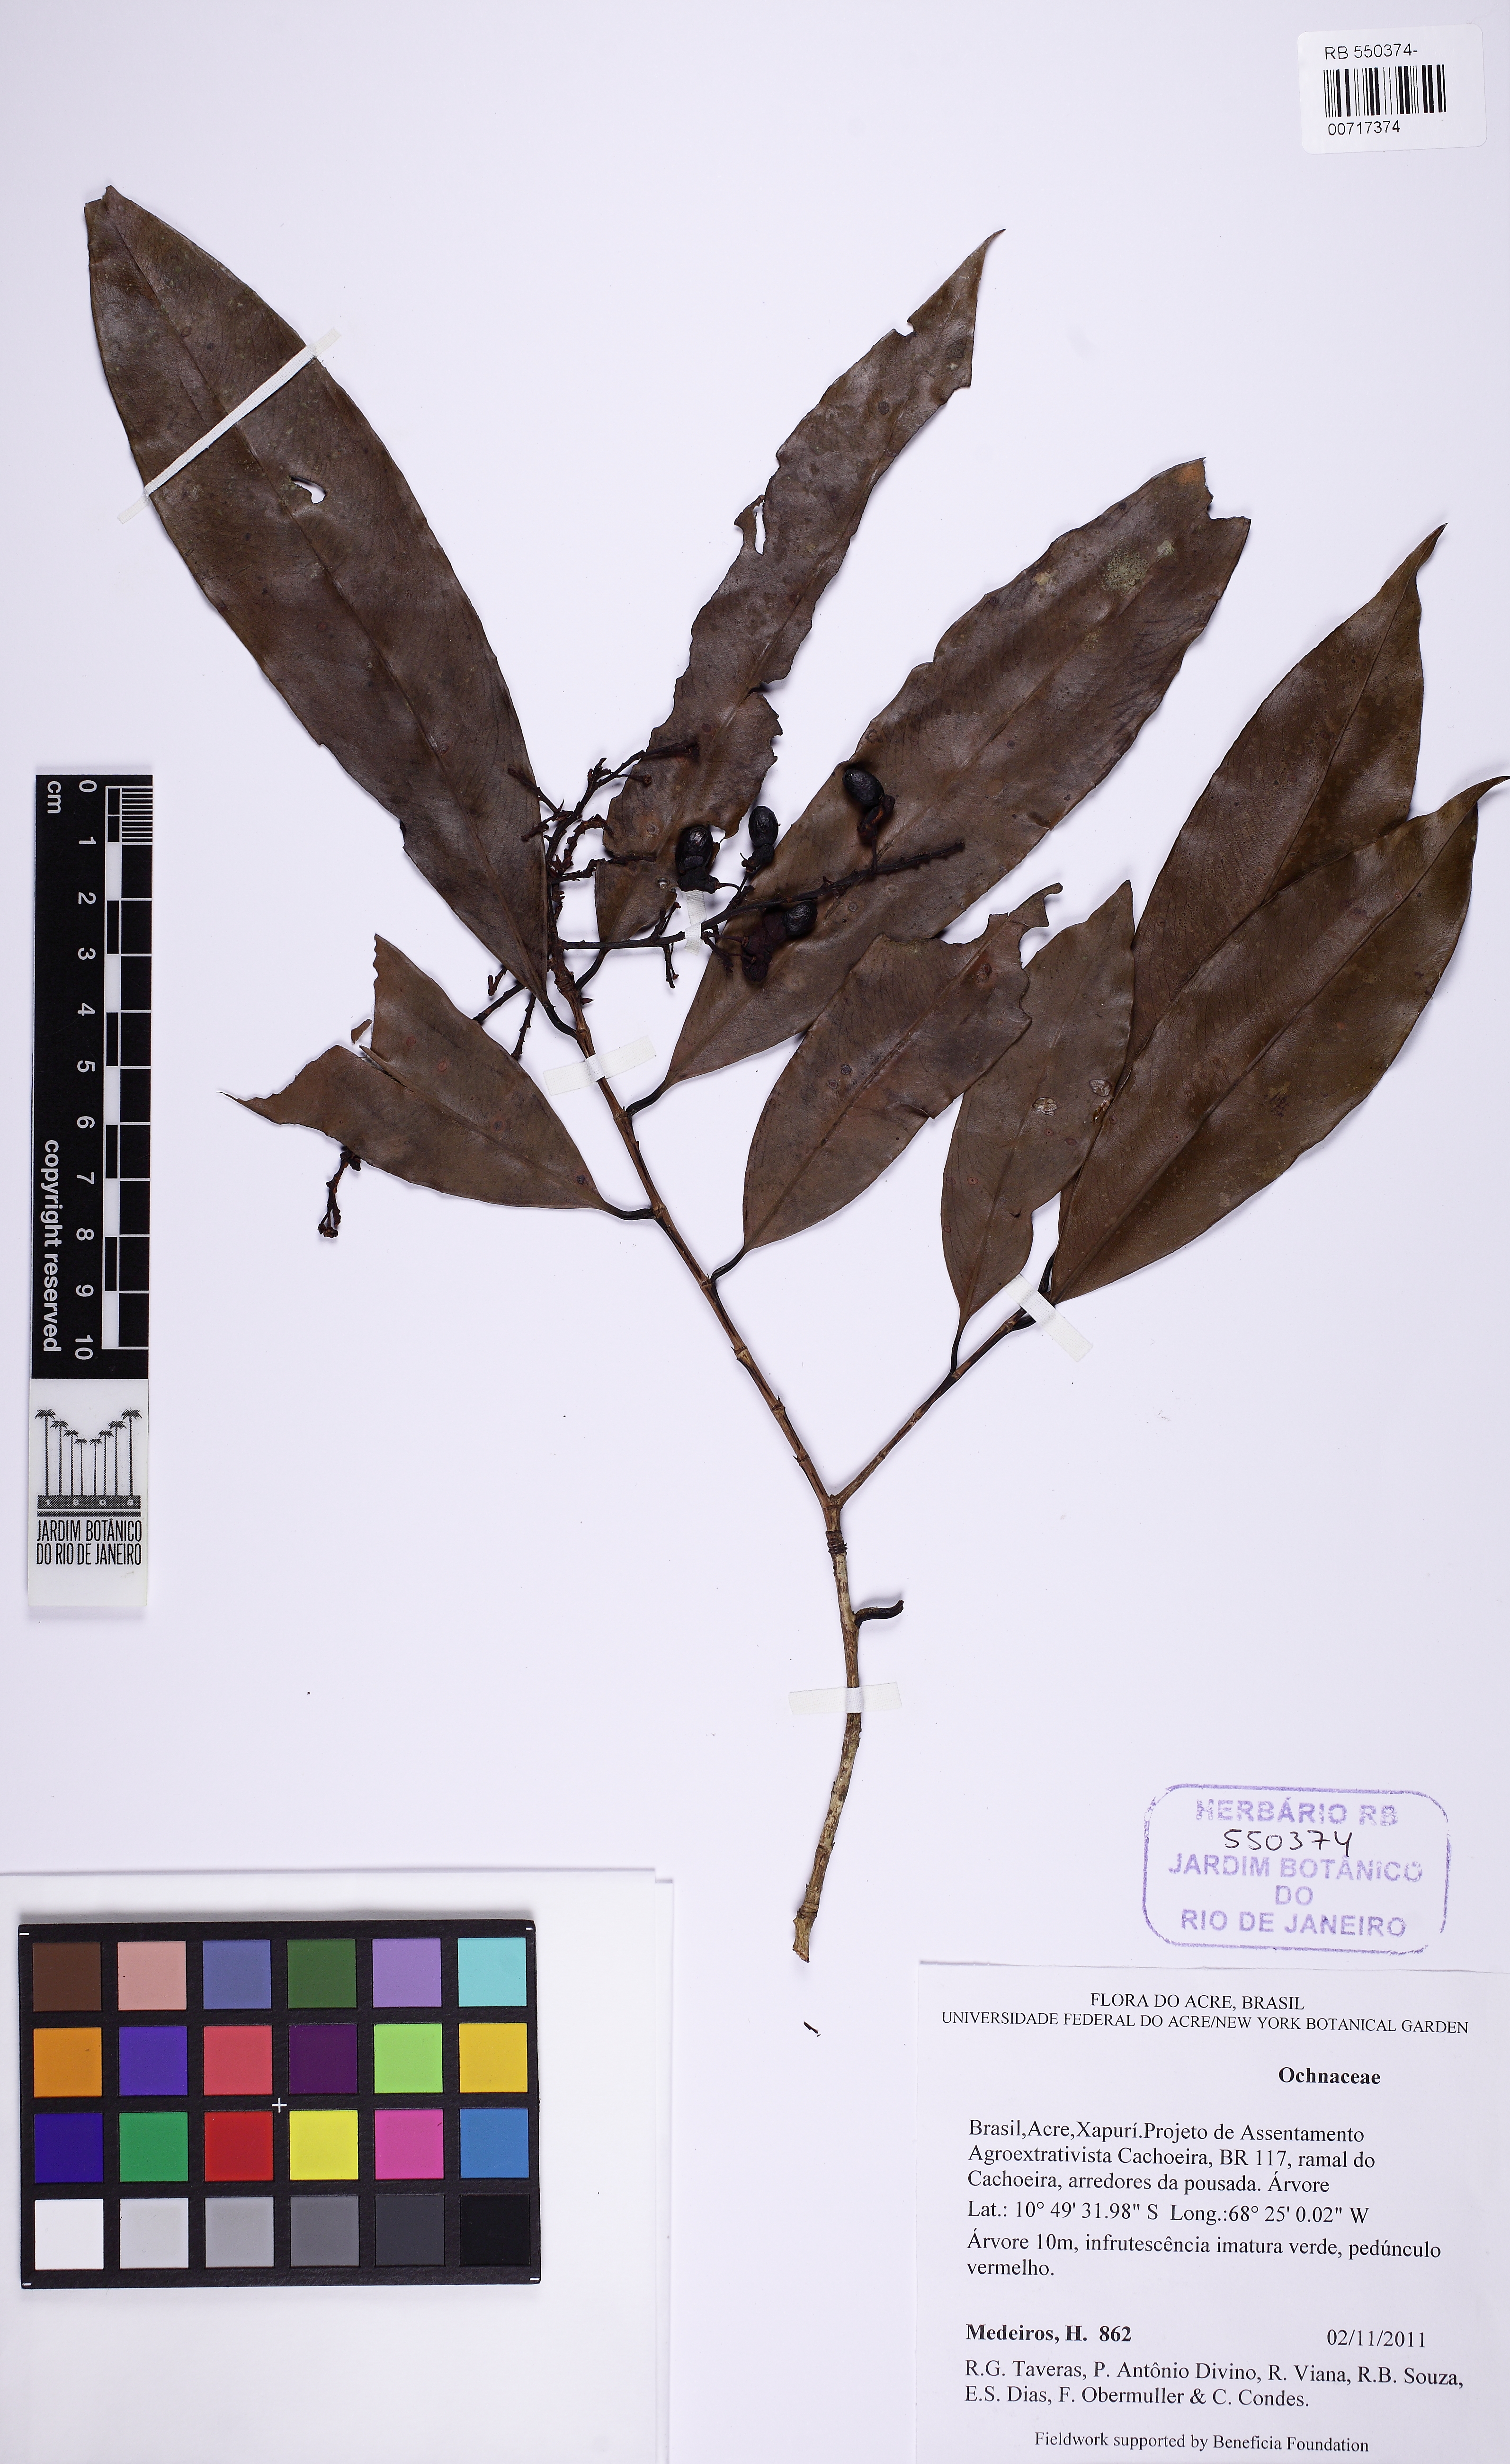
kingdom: Plantae
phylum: Tracheophyta
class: Magnoliopsida
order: Malpighiales
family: Ochnaceae
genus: Ouratea
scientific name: Ouratea
